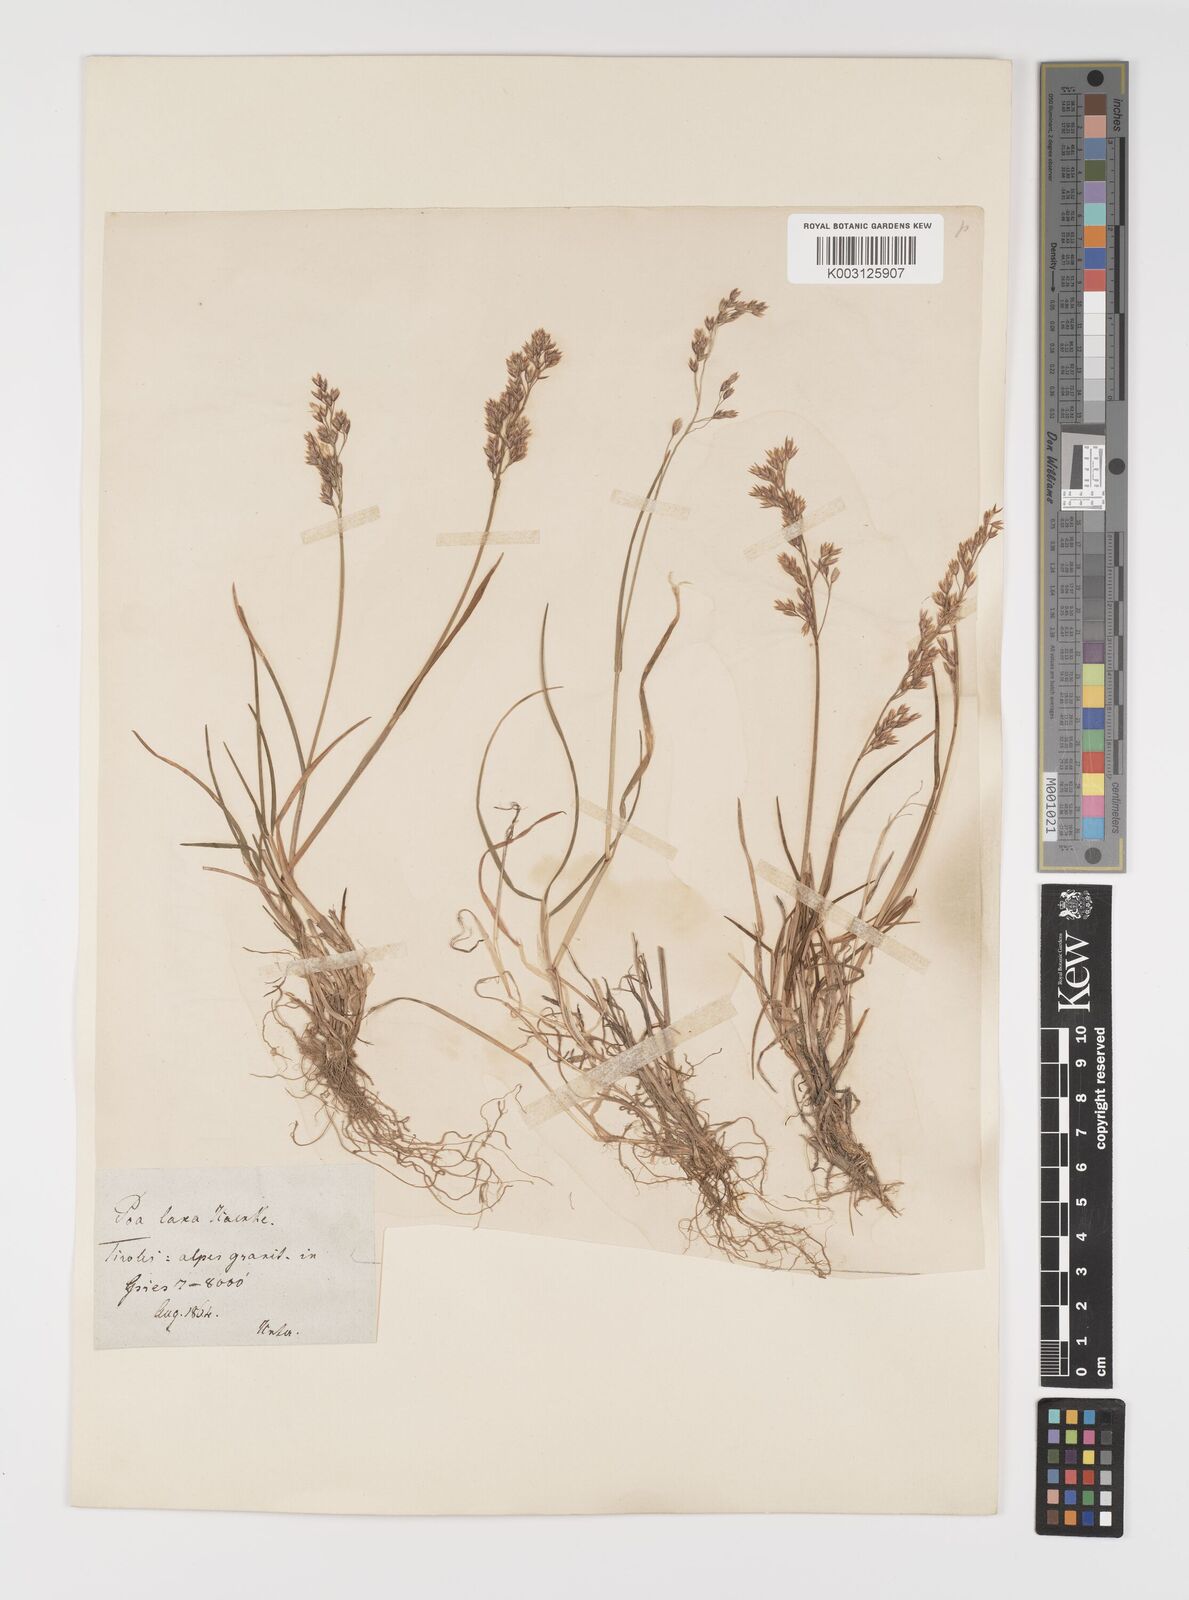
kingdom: Plantae
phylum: Tracheophyta
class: Liliopsida
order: Poales
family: Poaceae
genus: Poa
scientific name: Poa laxa
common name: Lax bluegrass
